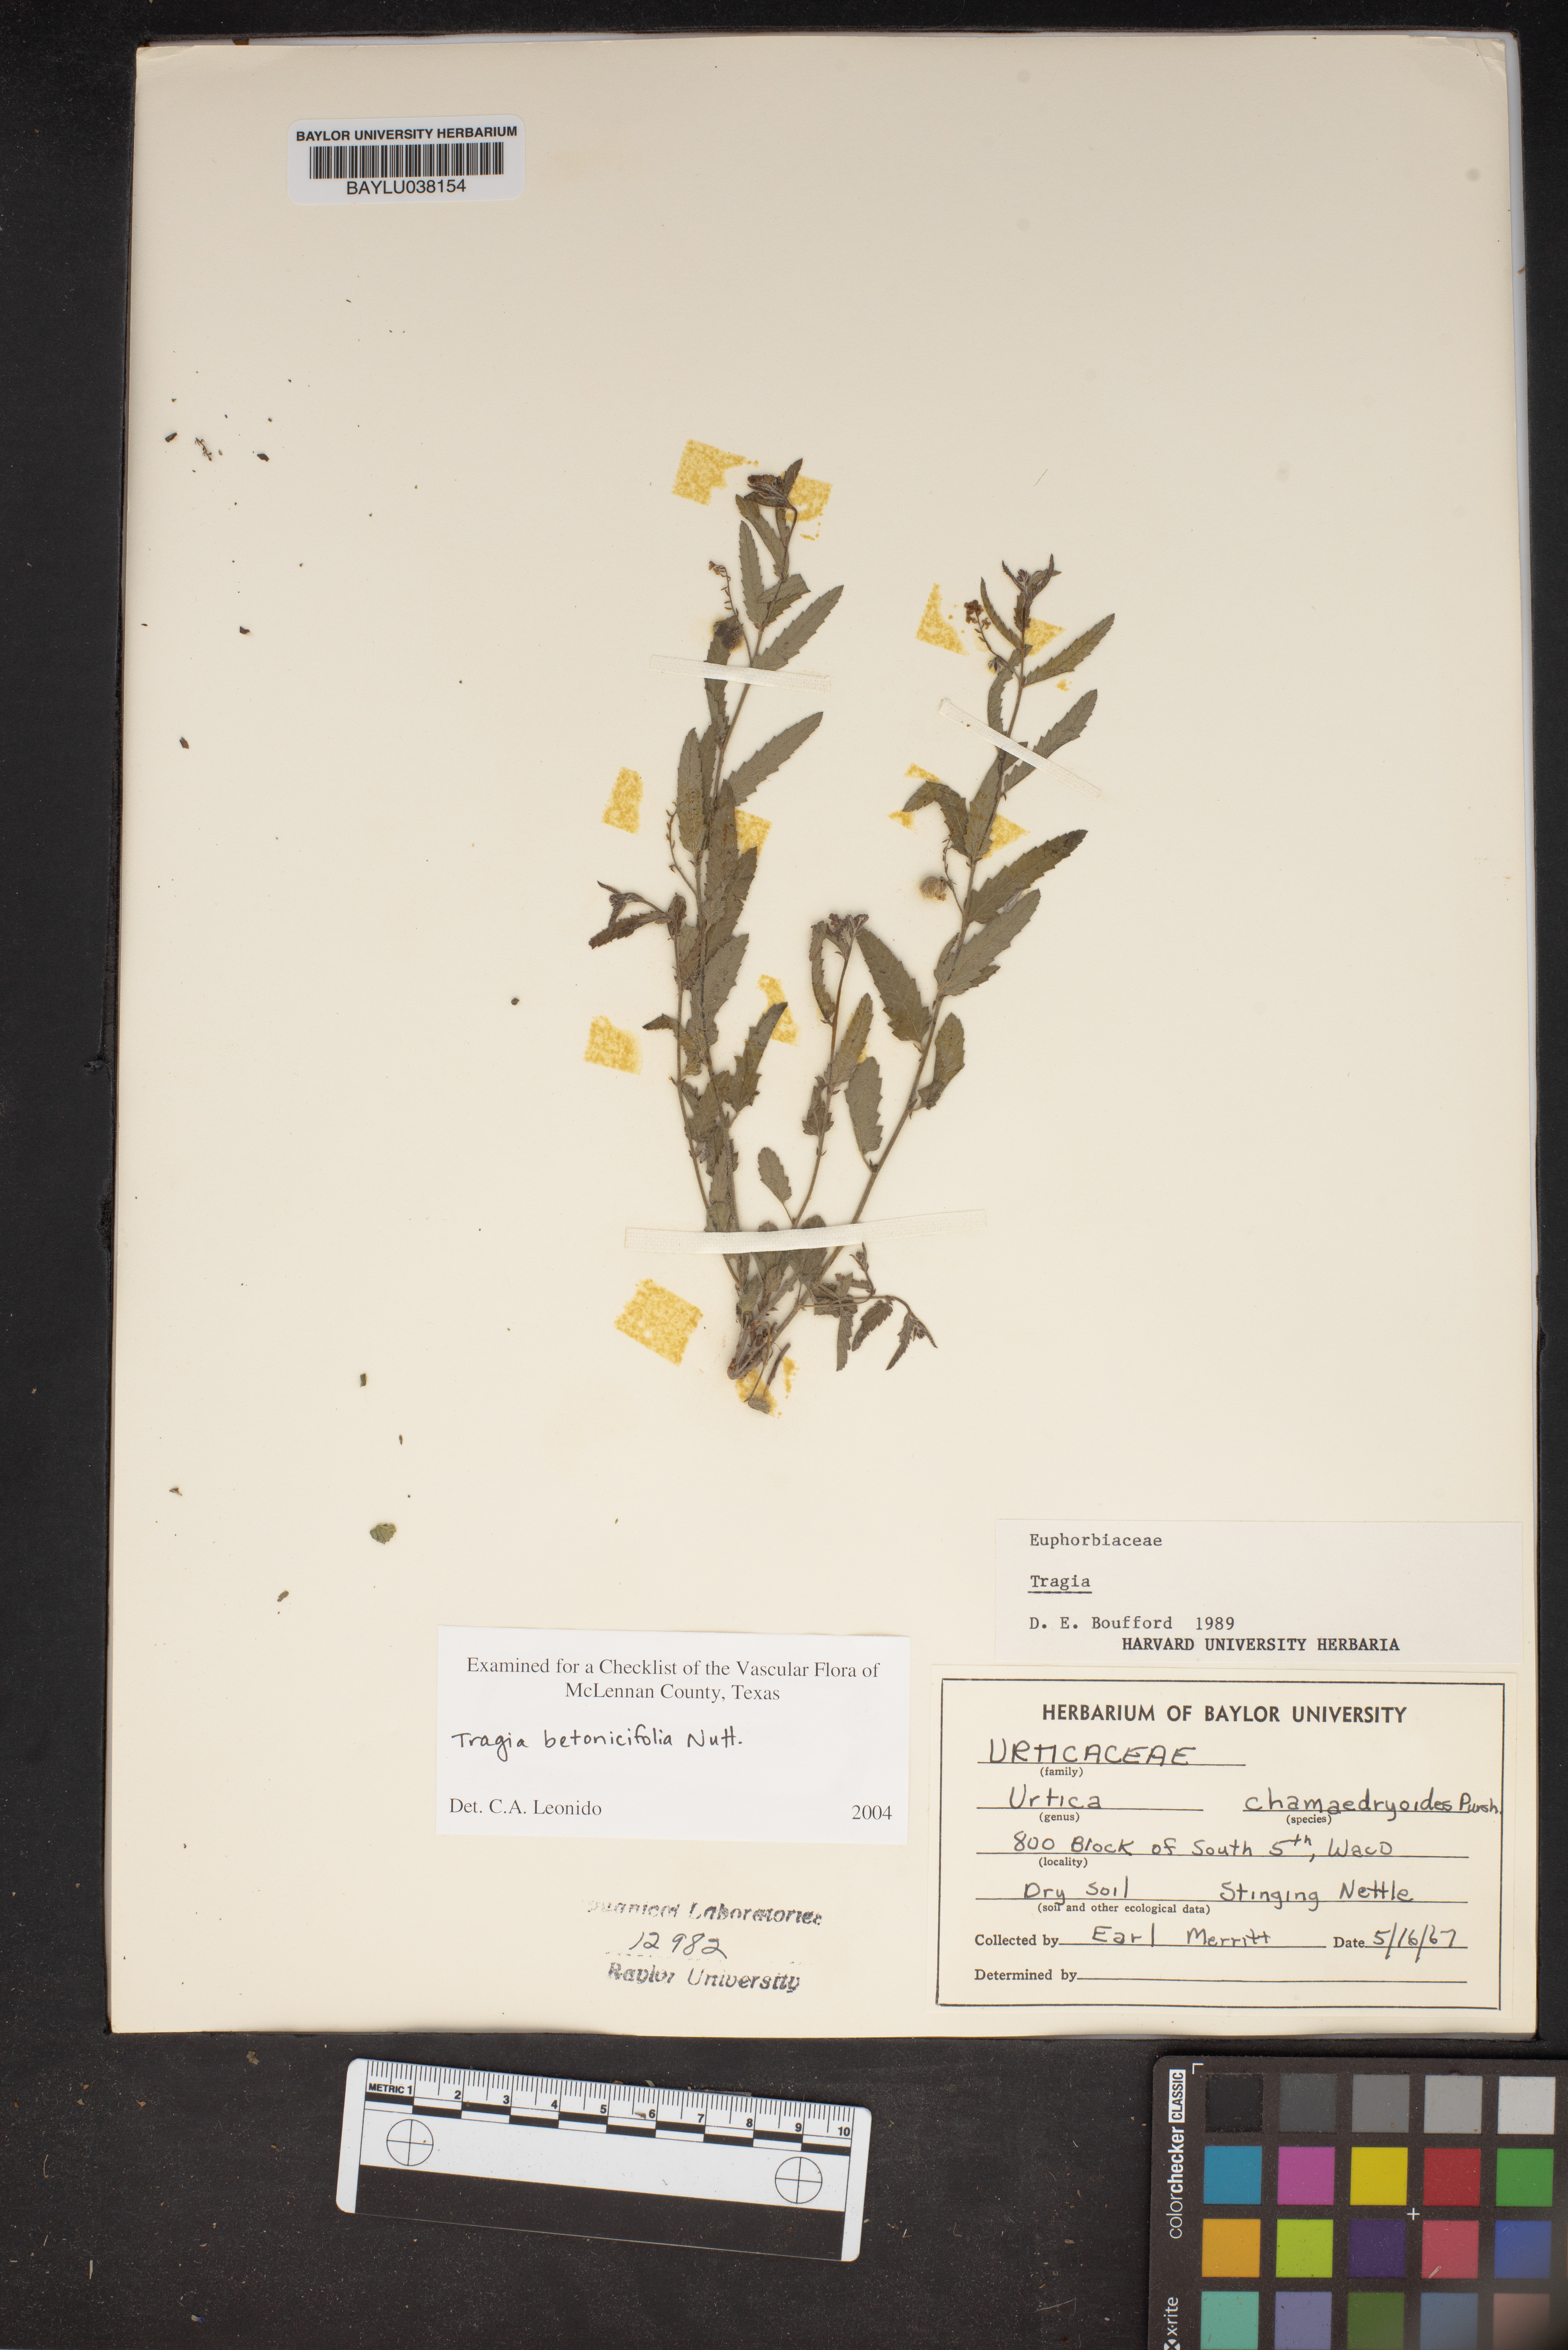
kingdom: Plantae
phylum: Tracheophyta
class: Magnoliopsida
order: Rosales
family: Urticaceae
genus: Urtica
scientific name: Urtica chamaedryoides
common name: Heart-leaf nettle
